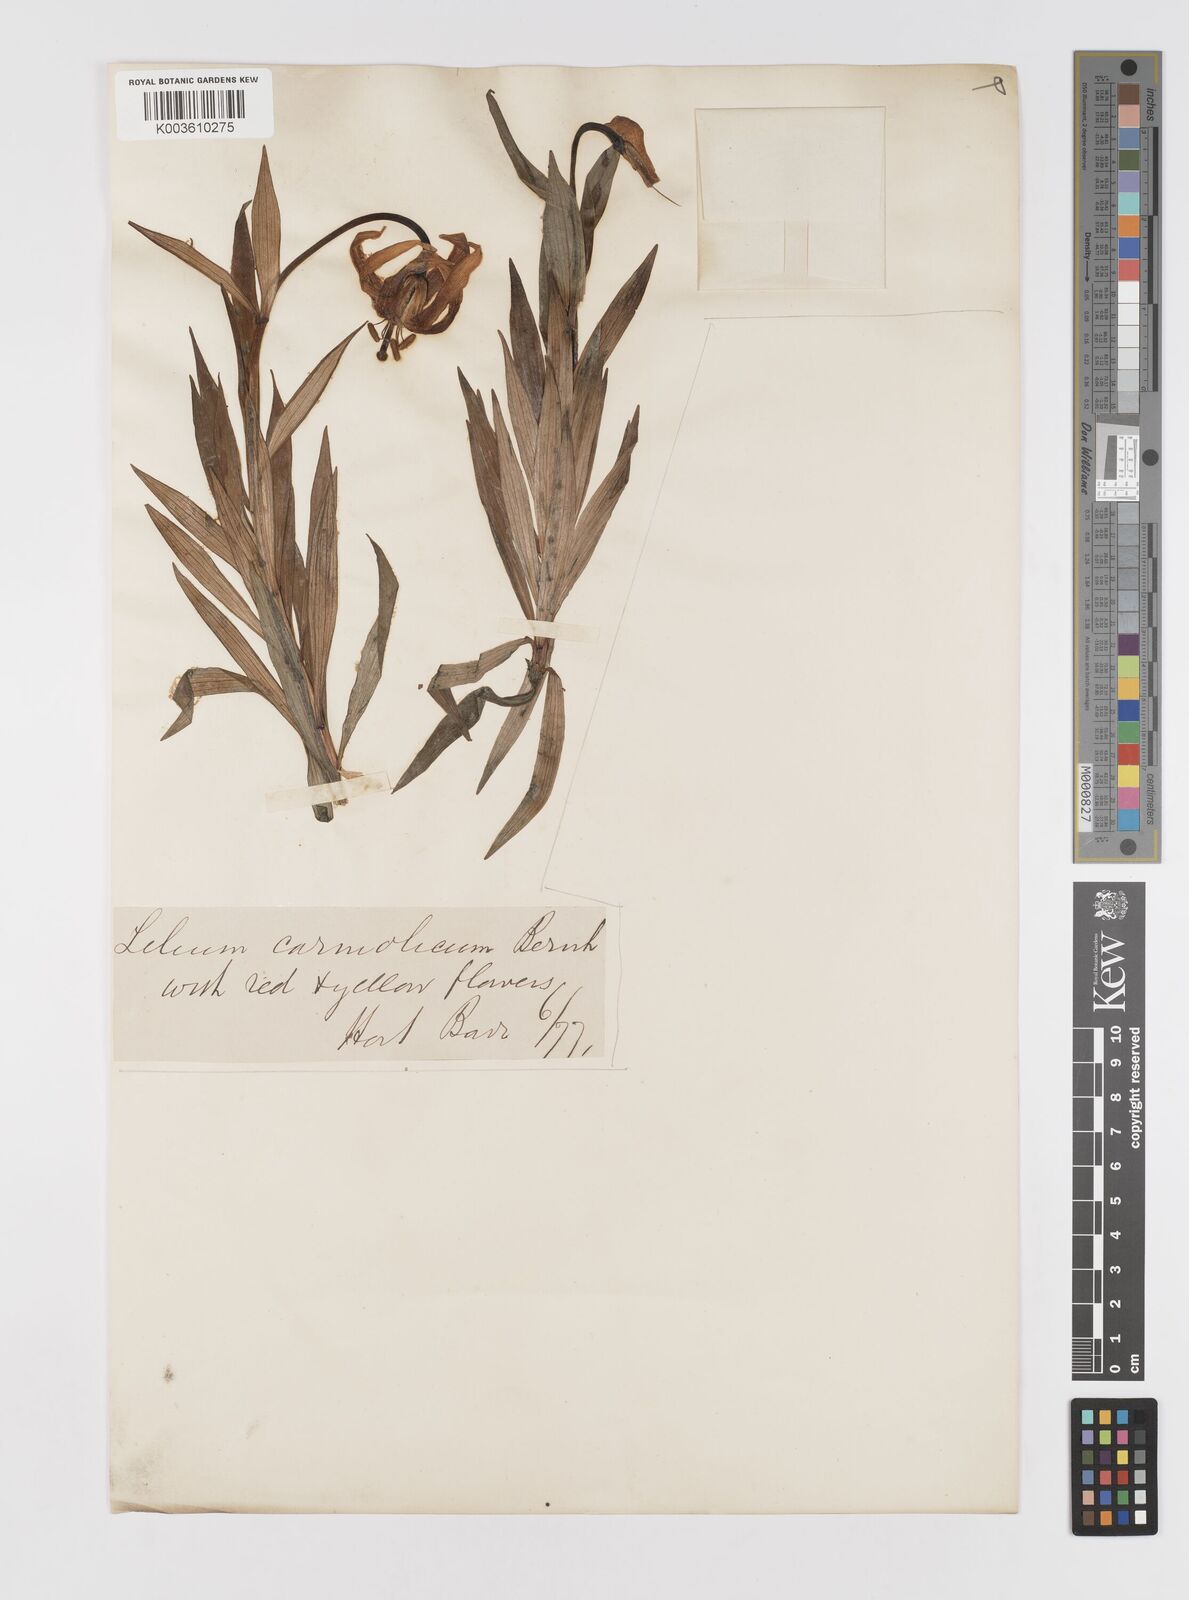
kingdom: Plantae
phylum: Tracheophyta
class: Liliopsida
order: Liliales
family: Liliaceae
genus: Lilium
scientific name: Lilium carniolicum
